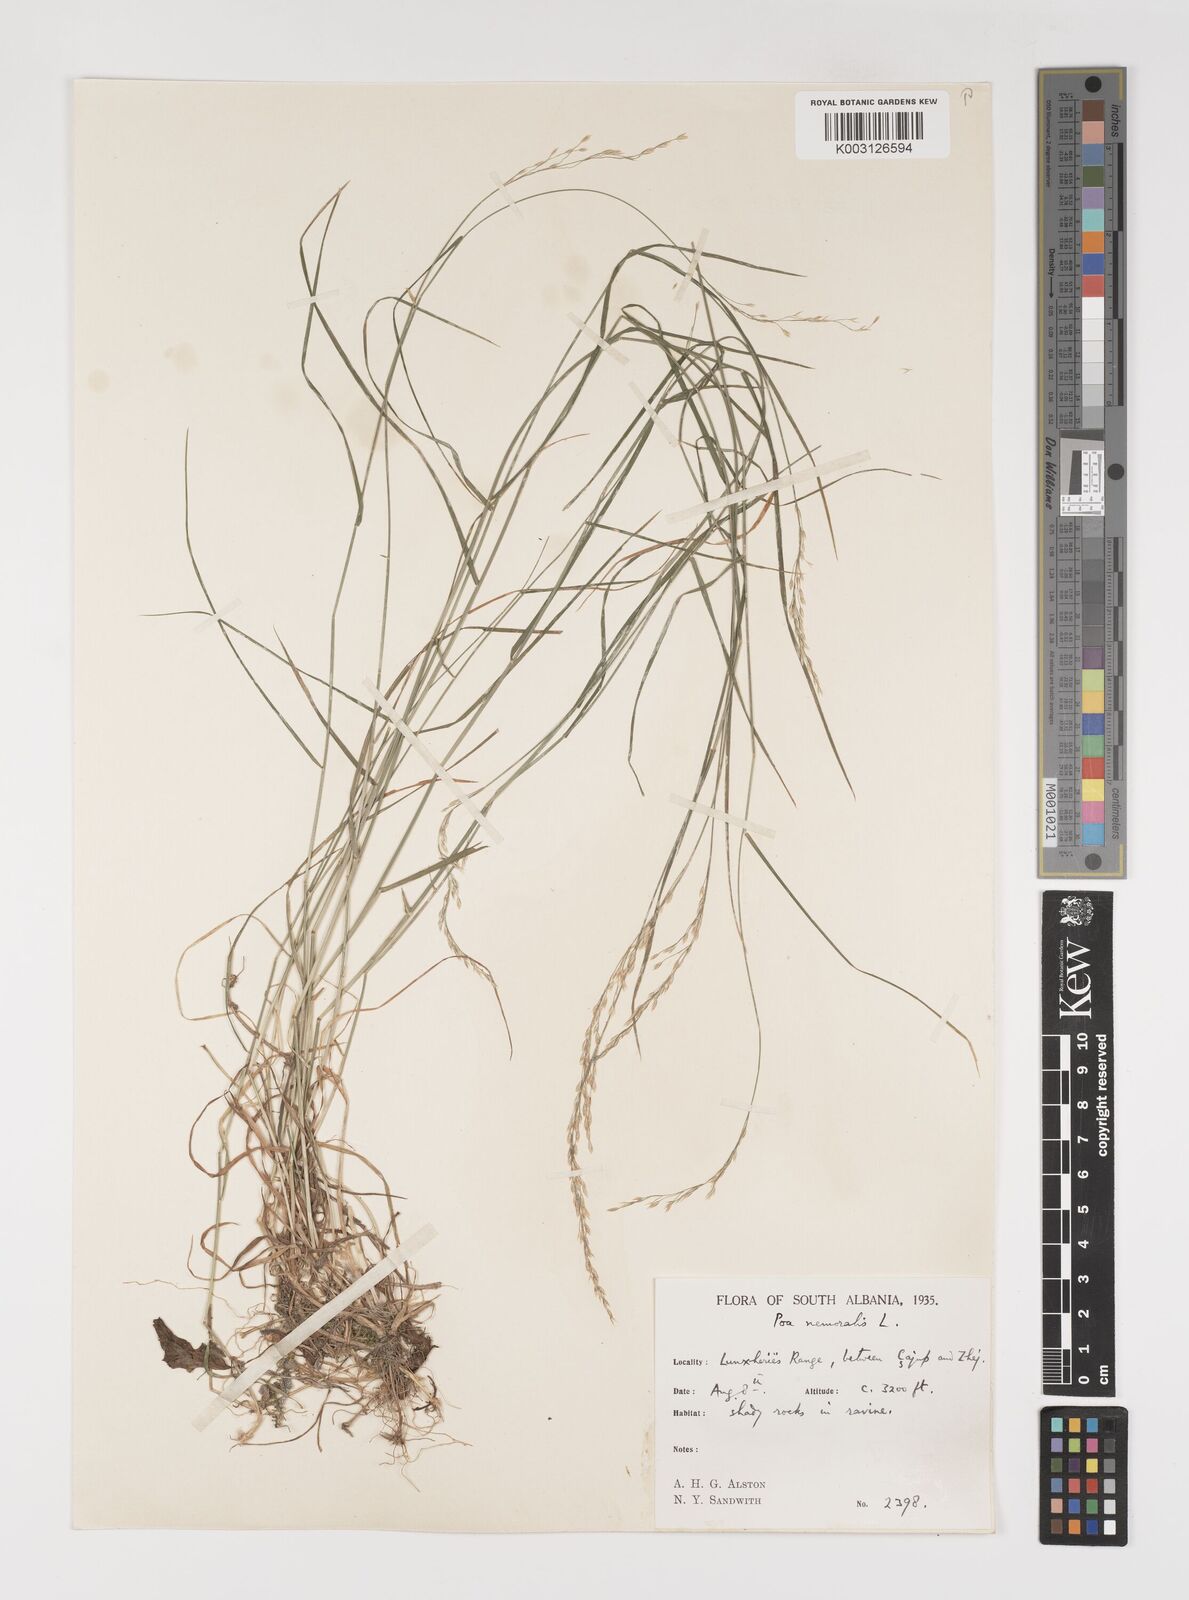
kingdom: Plantae
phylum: Tracheophyta
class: Liliopsida
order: Poales
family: Poaceae
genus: Poa
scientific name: Poa nemoralis
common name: Wood bluegrass
